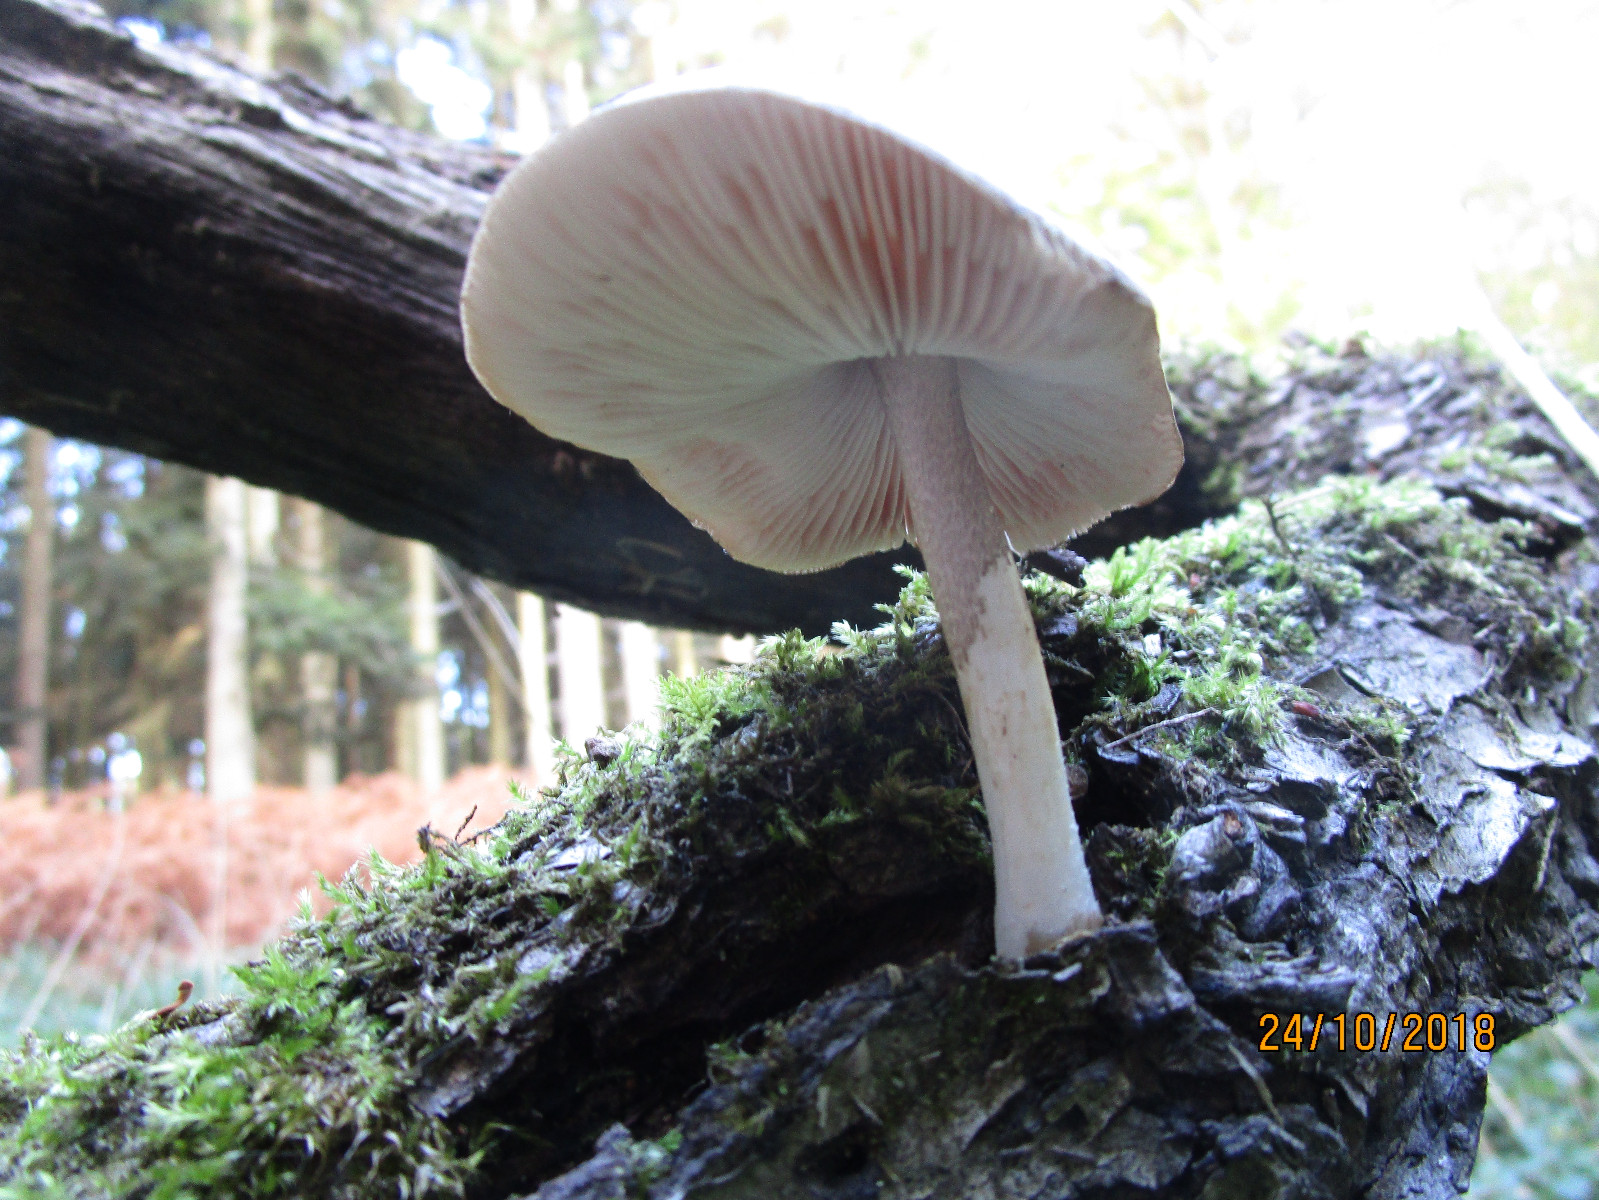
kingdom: Fungi
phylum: Basidiomycota
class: Agaricomycetes
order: Agaricales
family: Pluteaceae
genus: Pluteus
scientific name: Pluteus cervinus
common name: sodfarvet skærmhat
